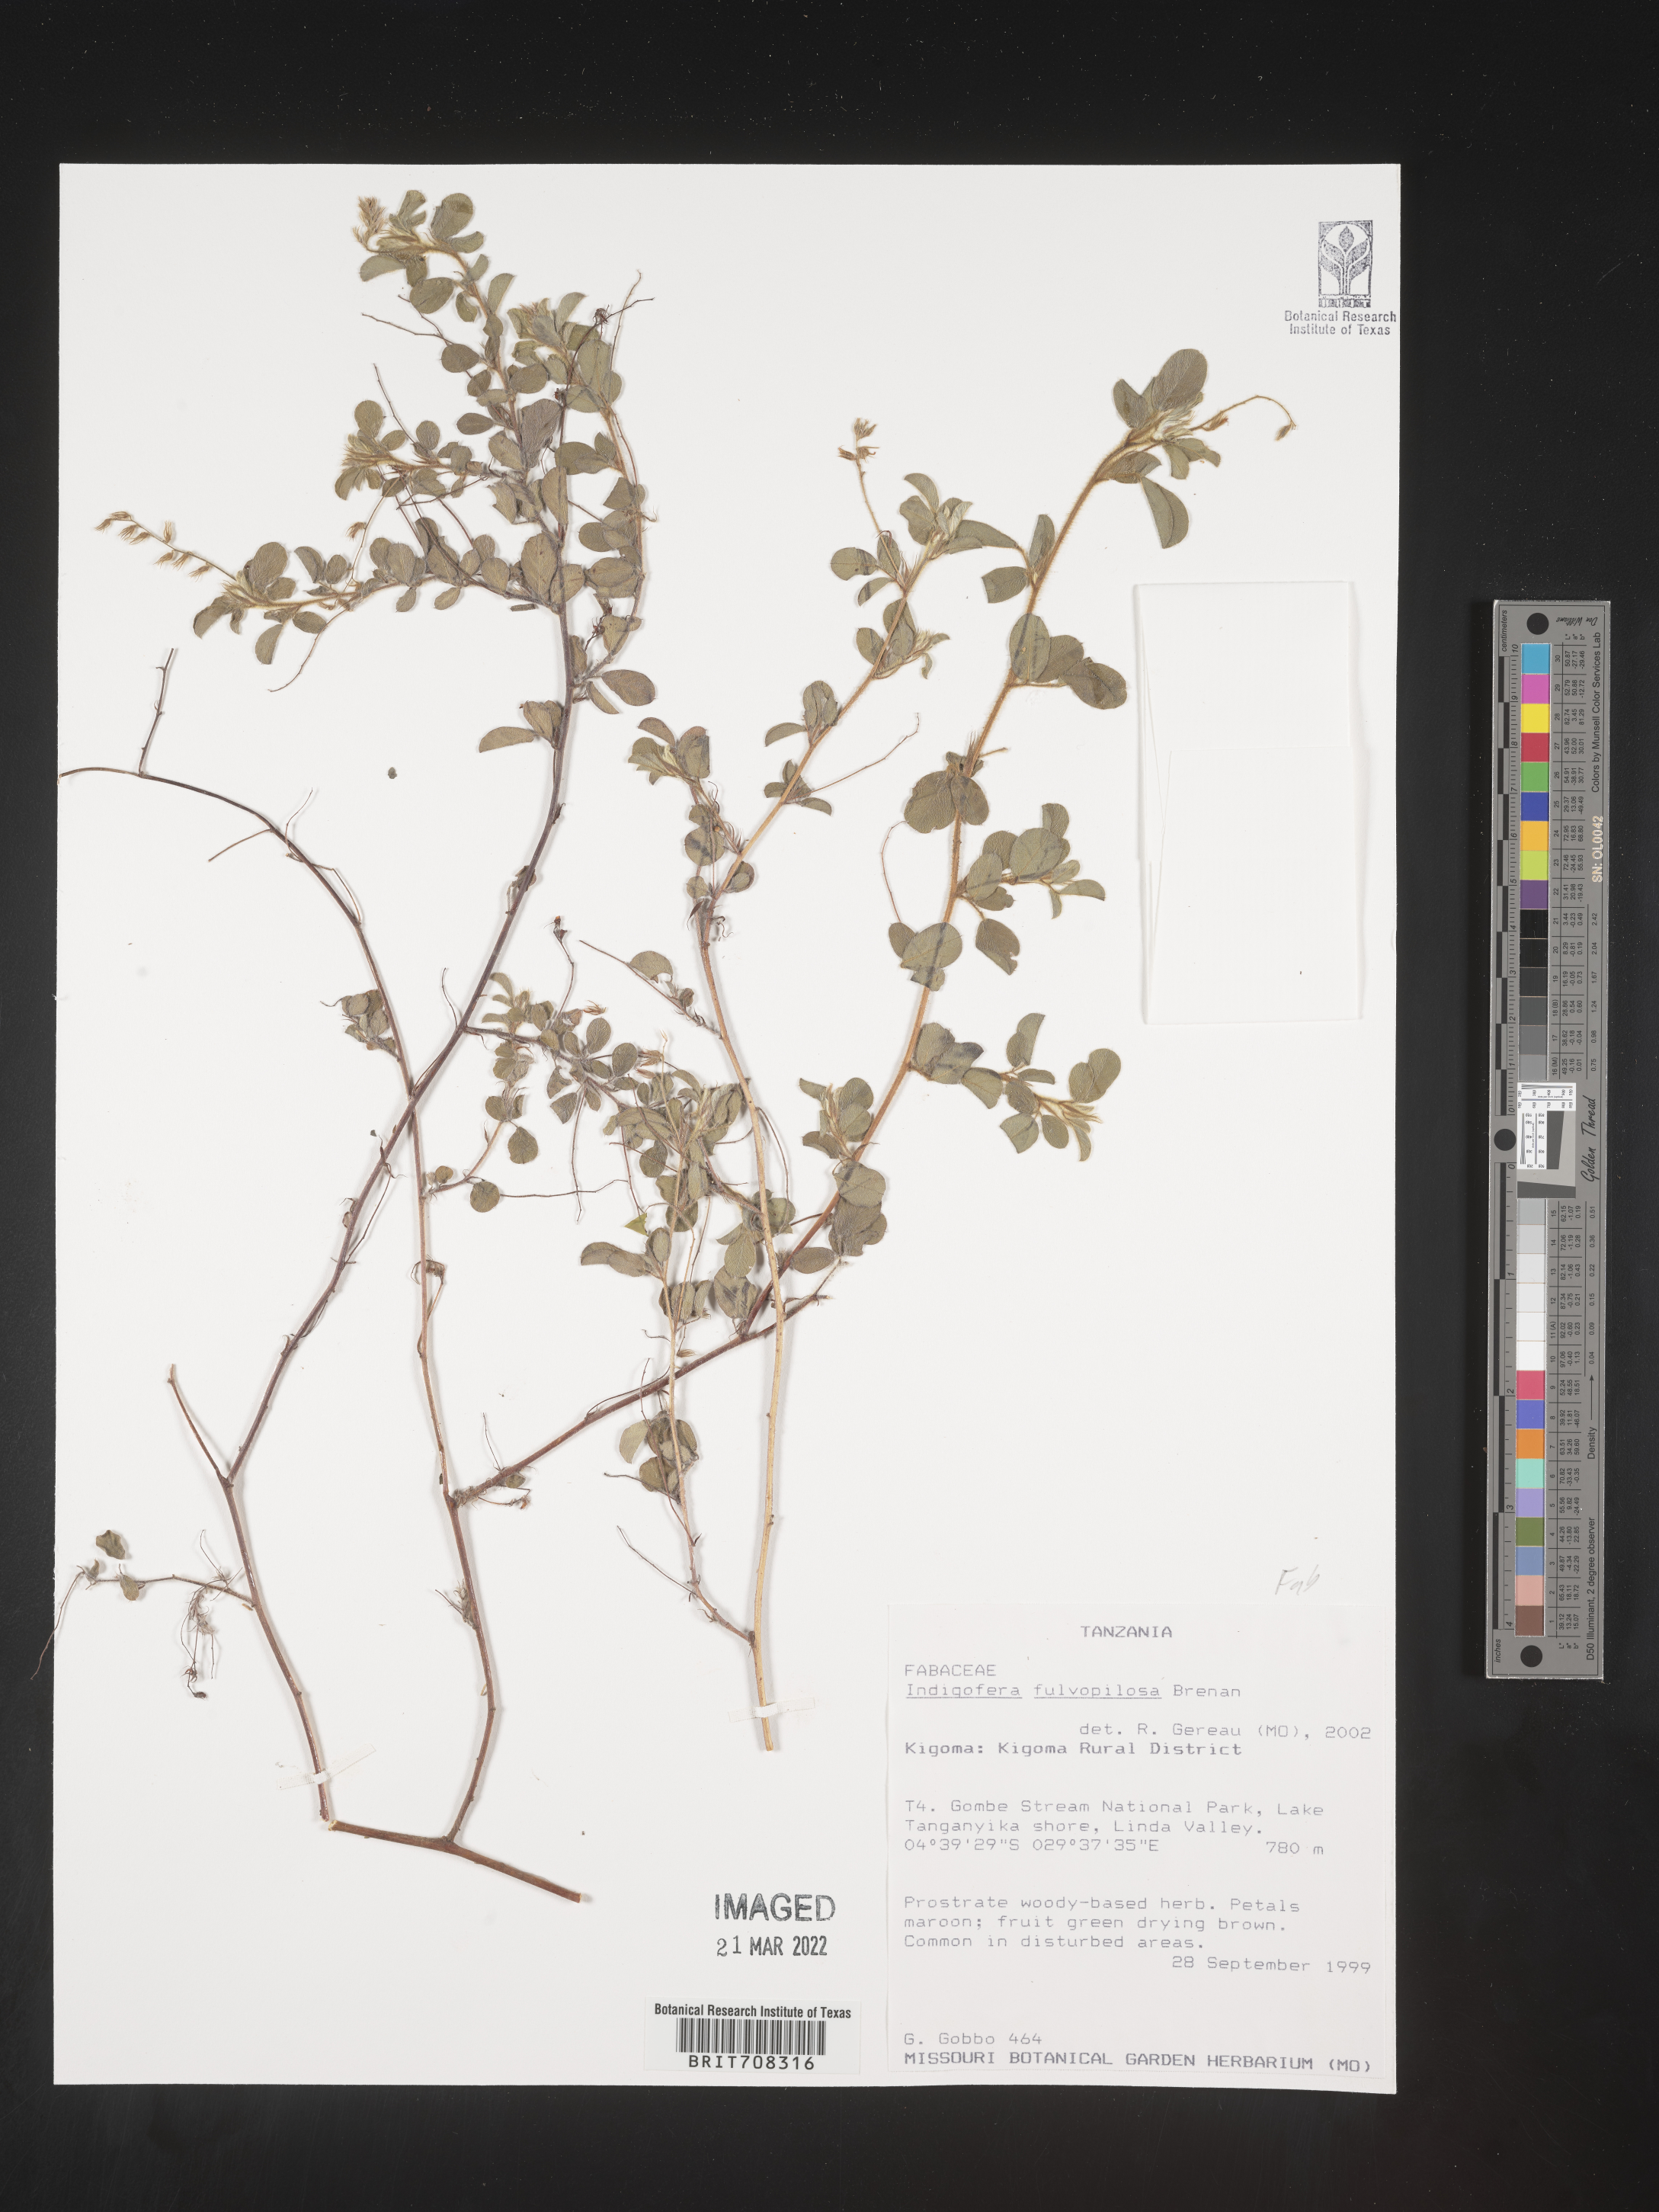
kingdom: Plantae
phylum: Tracheophyta
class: Magnoliopsida
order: Fabales
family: Fabaceae
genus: Indigofera
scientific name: Indigofera
